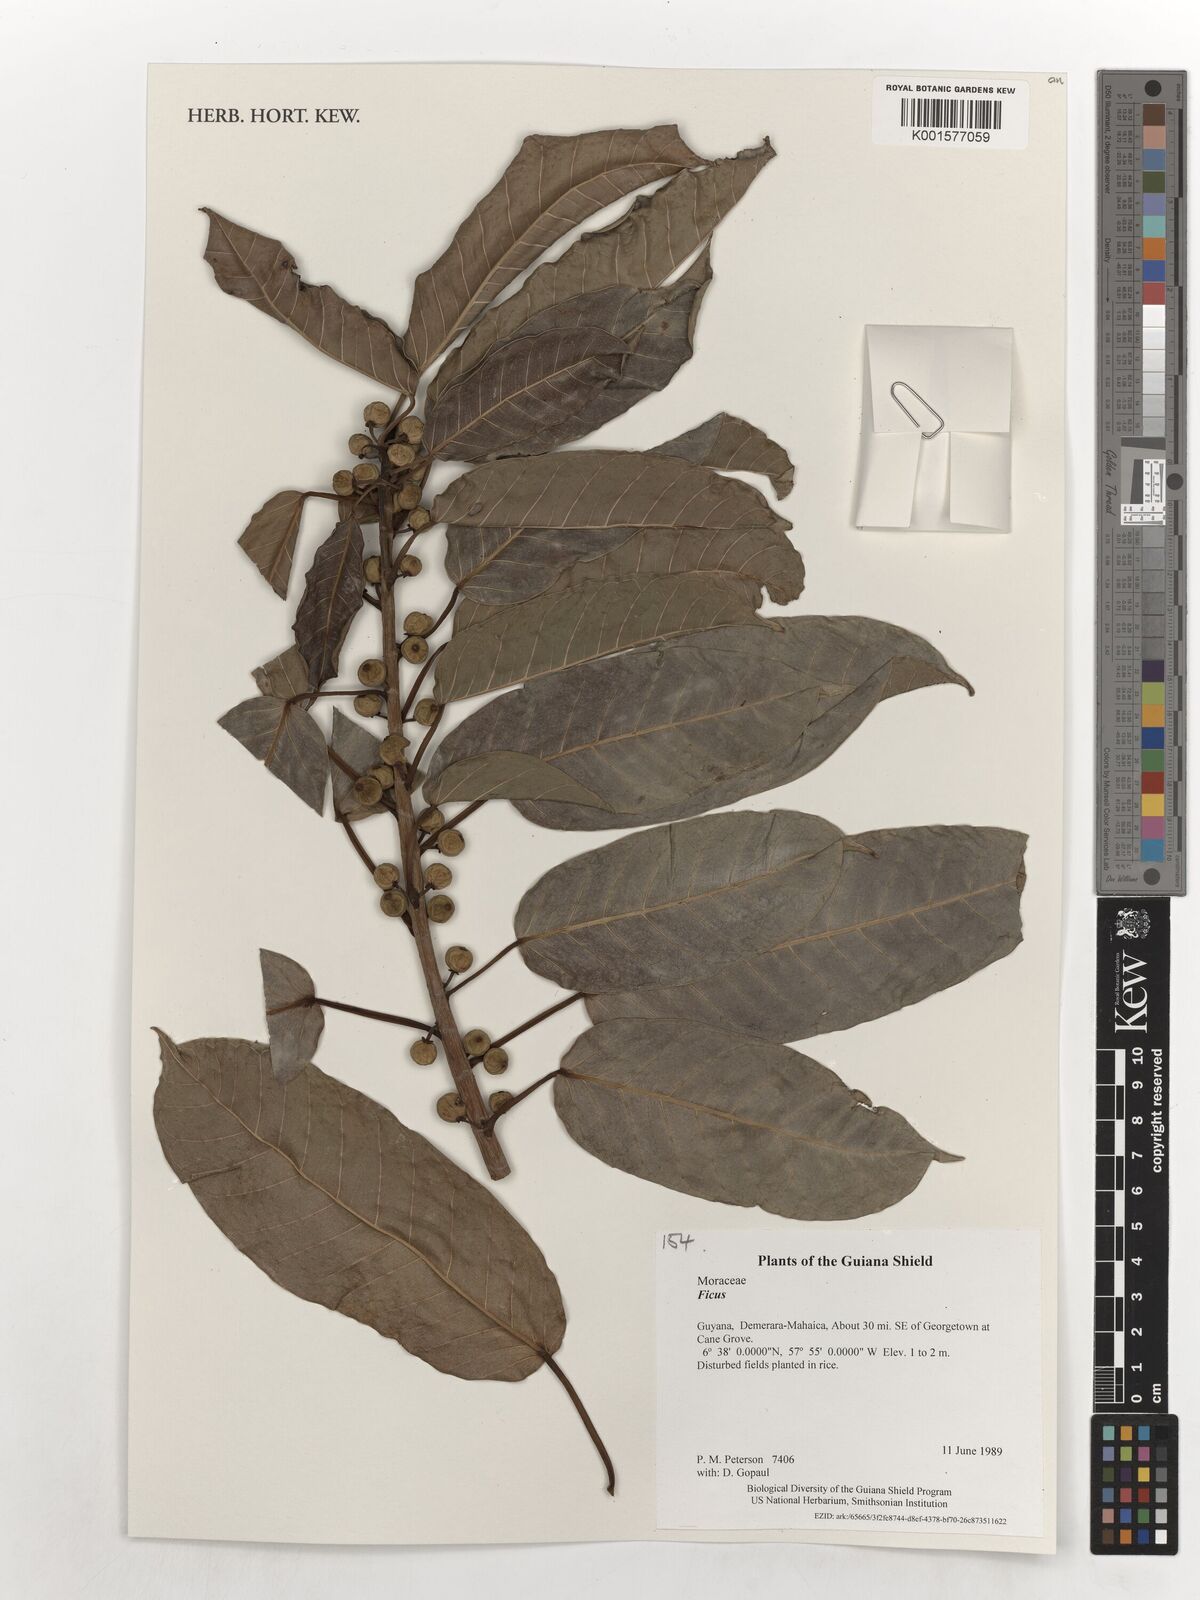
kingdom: Plantae
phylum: Tracheophyta
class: Magnoliopsida
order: Rosales
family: Moraceae
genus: Ficus
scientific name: Ficus
